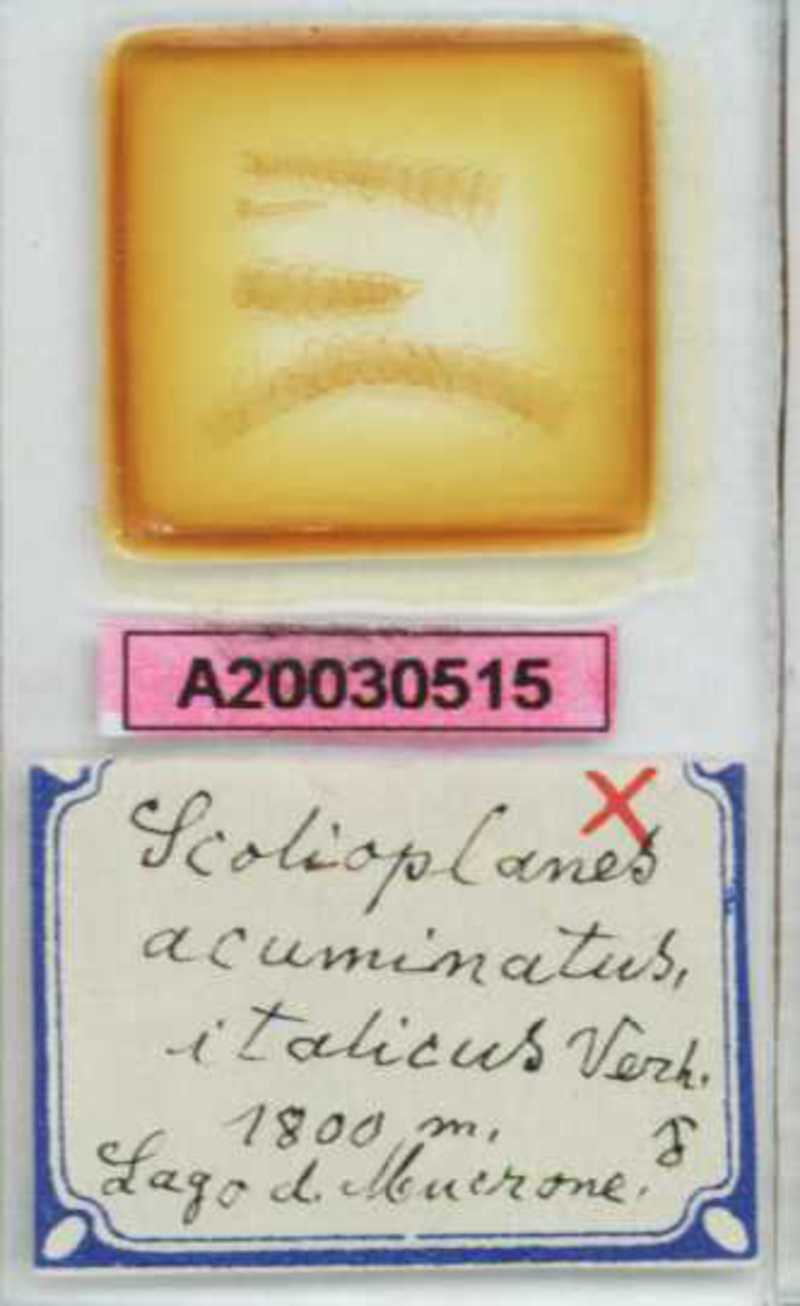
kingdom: Animalia
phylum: Arthropoda
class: Chilopoda
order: Geophilomorpha
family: Linotaeniidae
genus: Strigamia
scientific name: Strigamia acuminata
